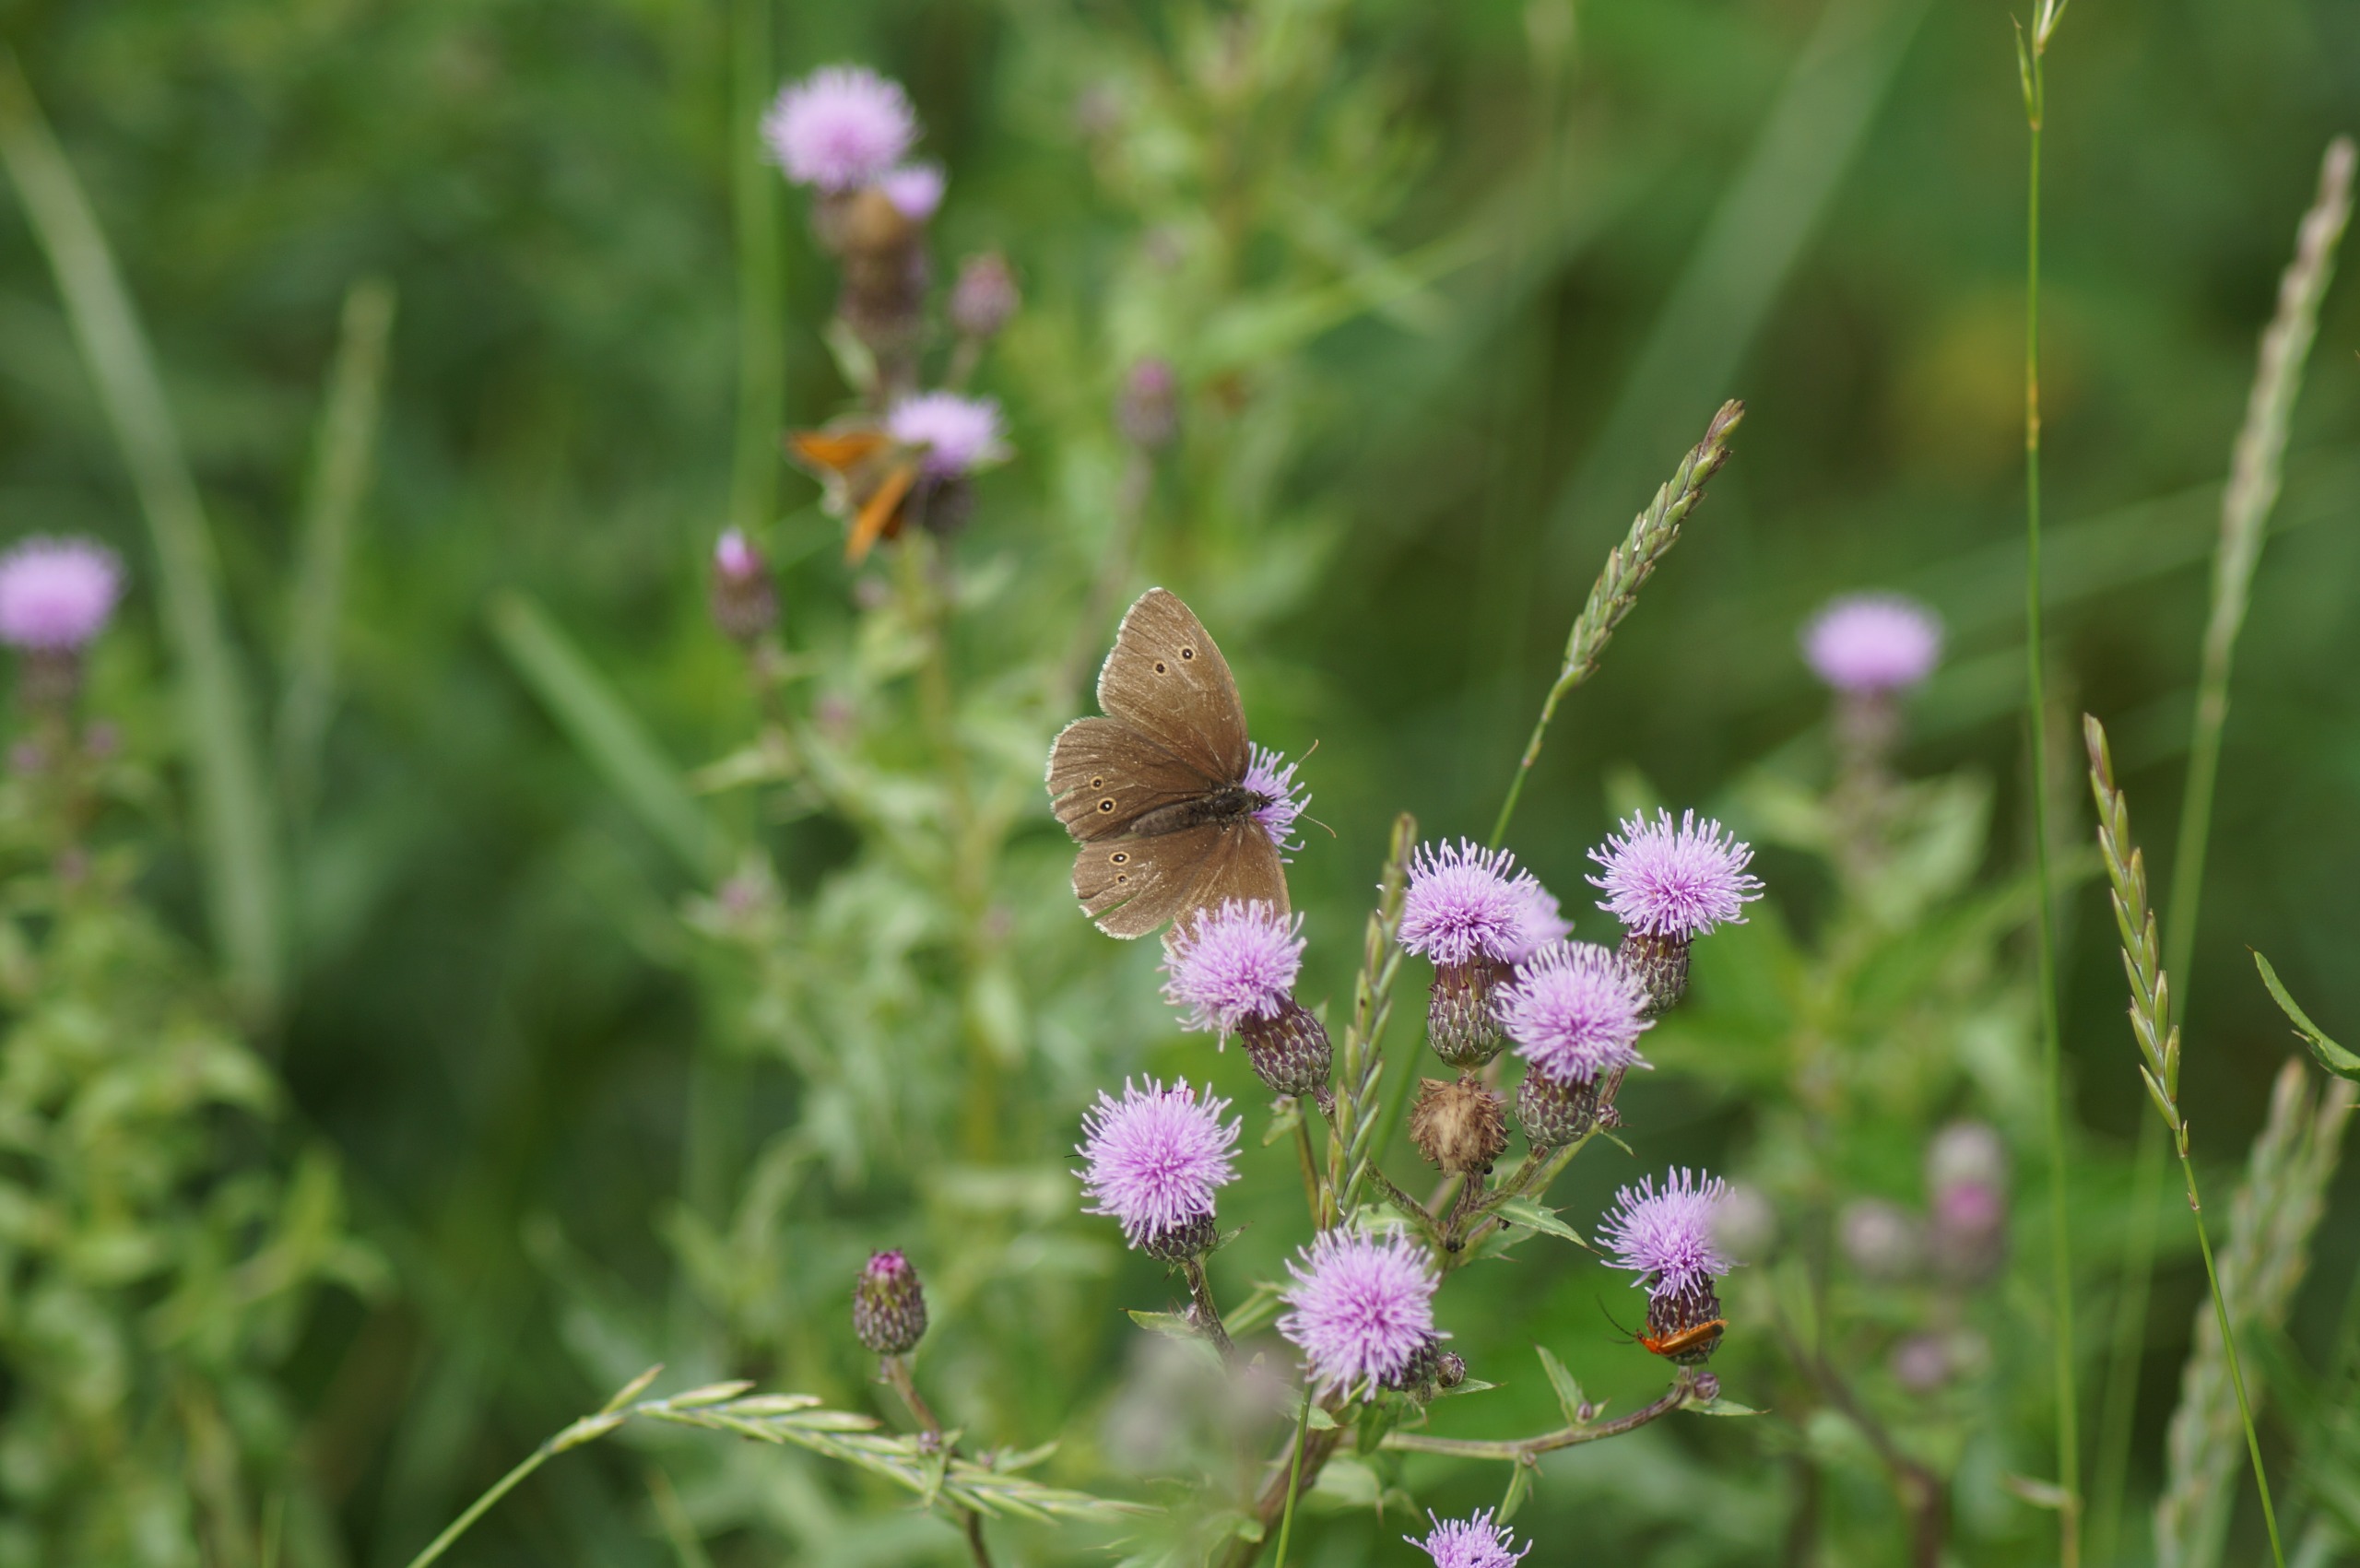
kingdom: Animalia
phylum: Arthropoda
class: Insecta
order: Lepidoptera
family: Nymphalidae
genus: Aphantopus
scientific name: Aphantopus hyperantus
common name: Engrandøje
